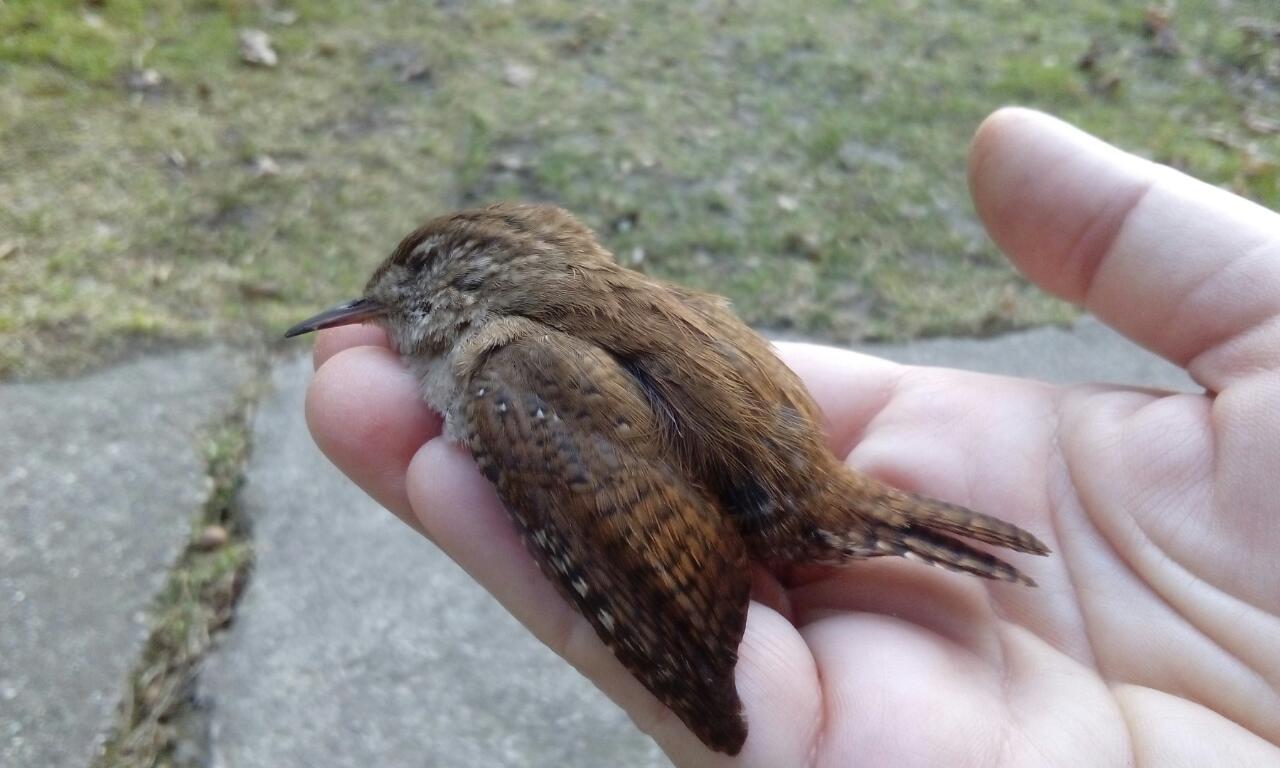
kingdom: Animalia
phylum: Chordata
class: Aves
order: Passeriformes
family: Troglodytidae
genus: Troglodytes
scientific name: Troglodytes troglodytes
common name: Eurasian wren
